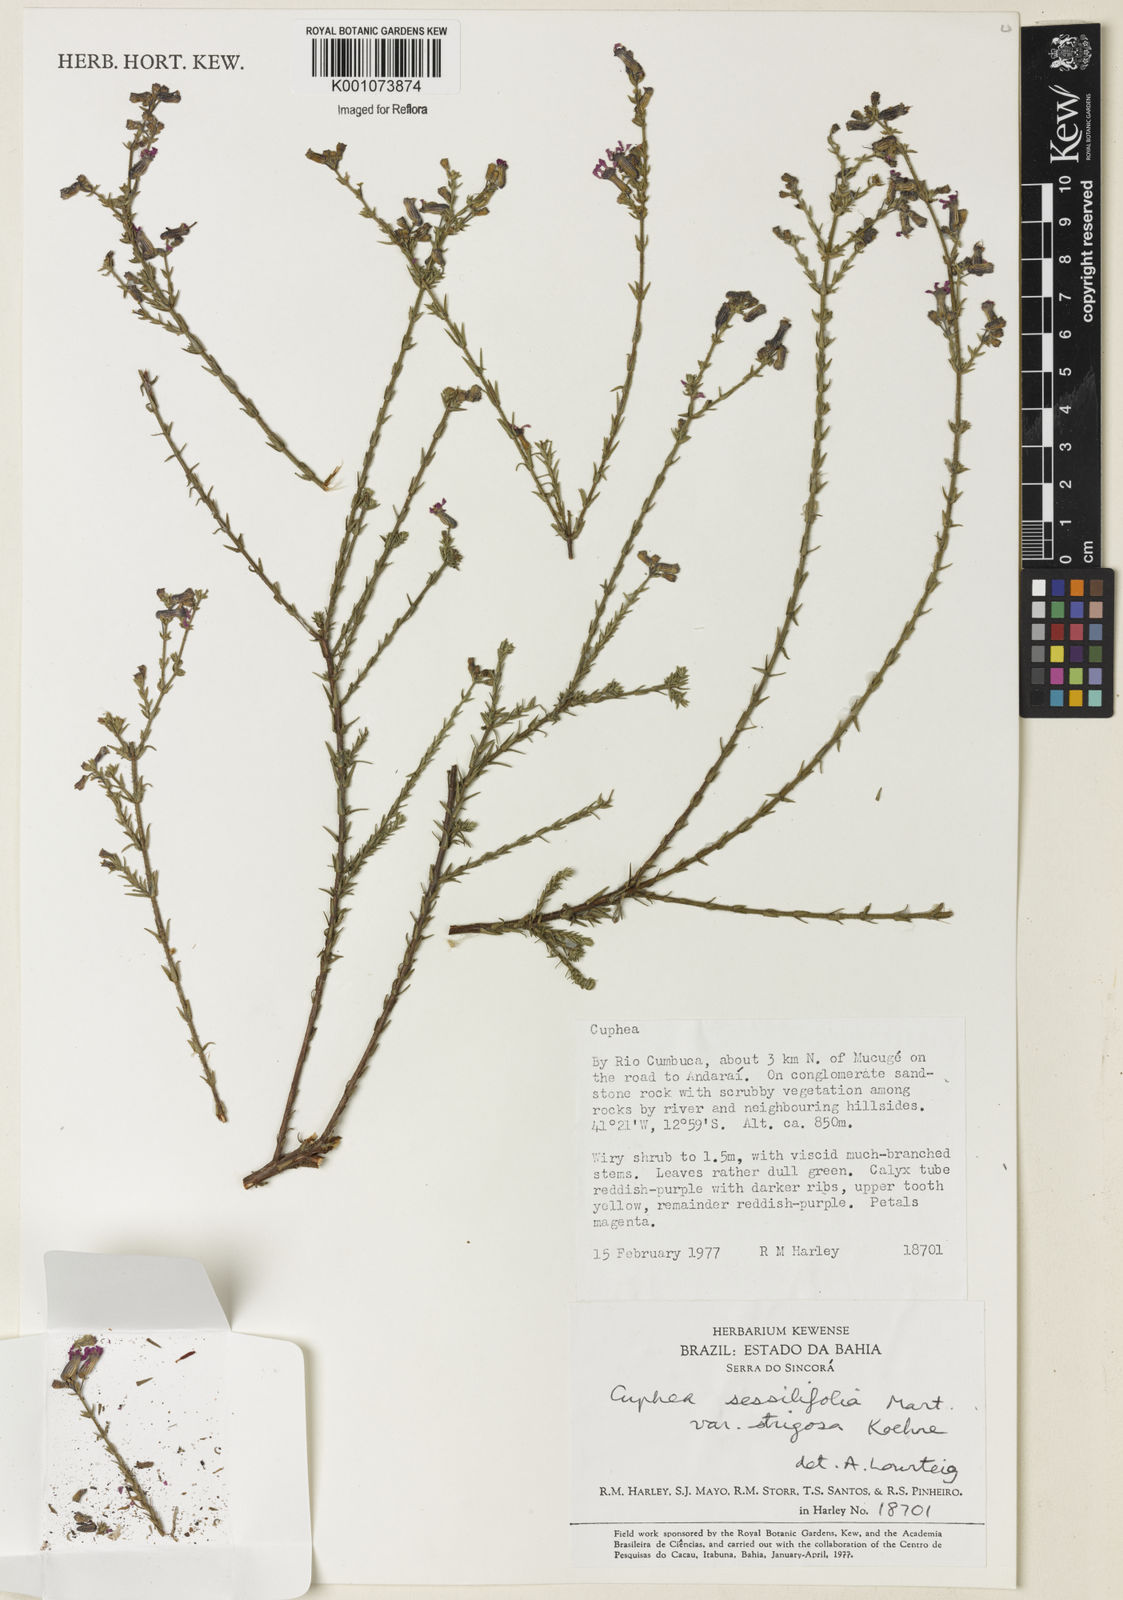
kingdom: Plantae
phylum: Tracheophyta
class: Magnoliopsida
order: Myrtales
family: Lythraceae
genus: Cuphea
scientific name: Cuphea
